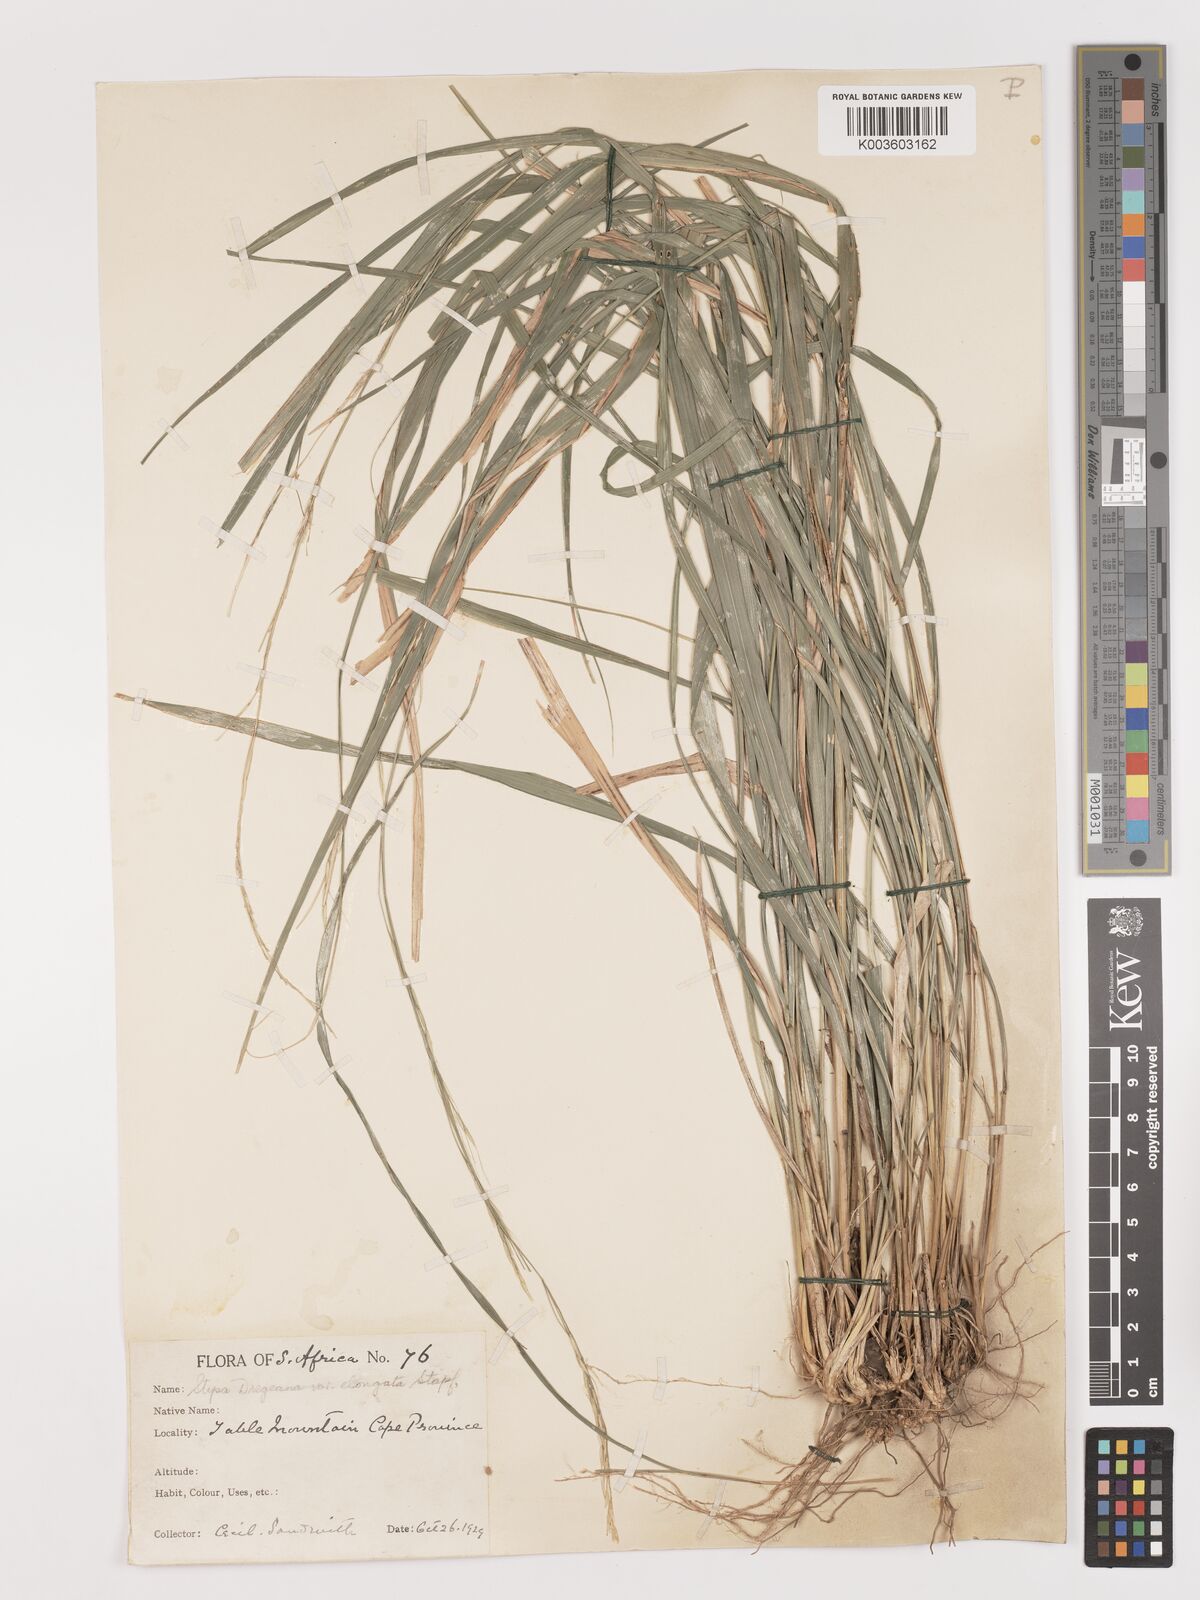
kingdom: Plantae
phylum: Tracheophyta
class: Liliopsida
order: Poales
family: Poaceae
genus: Stipa
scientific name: Stipa dregeana
